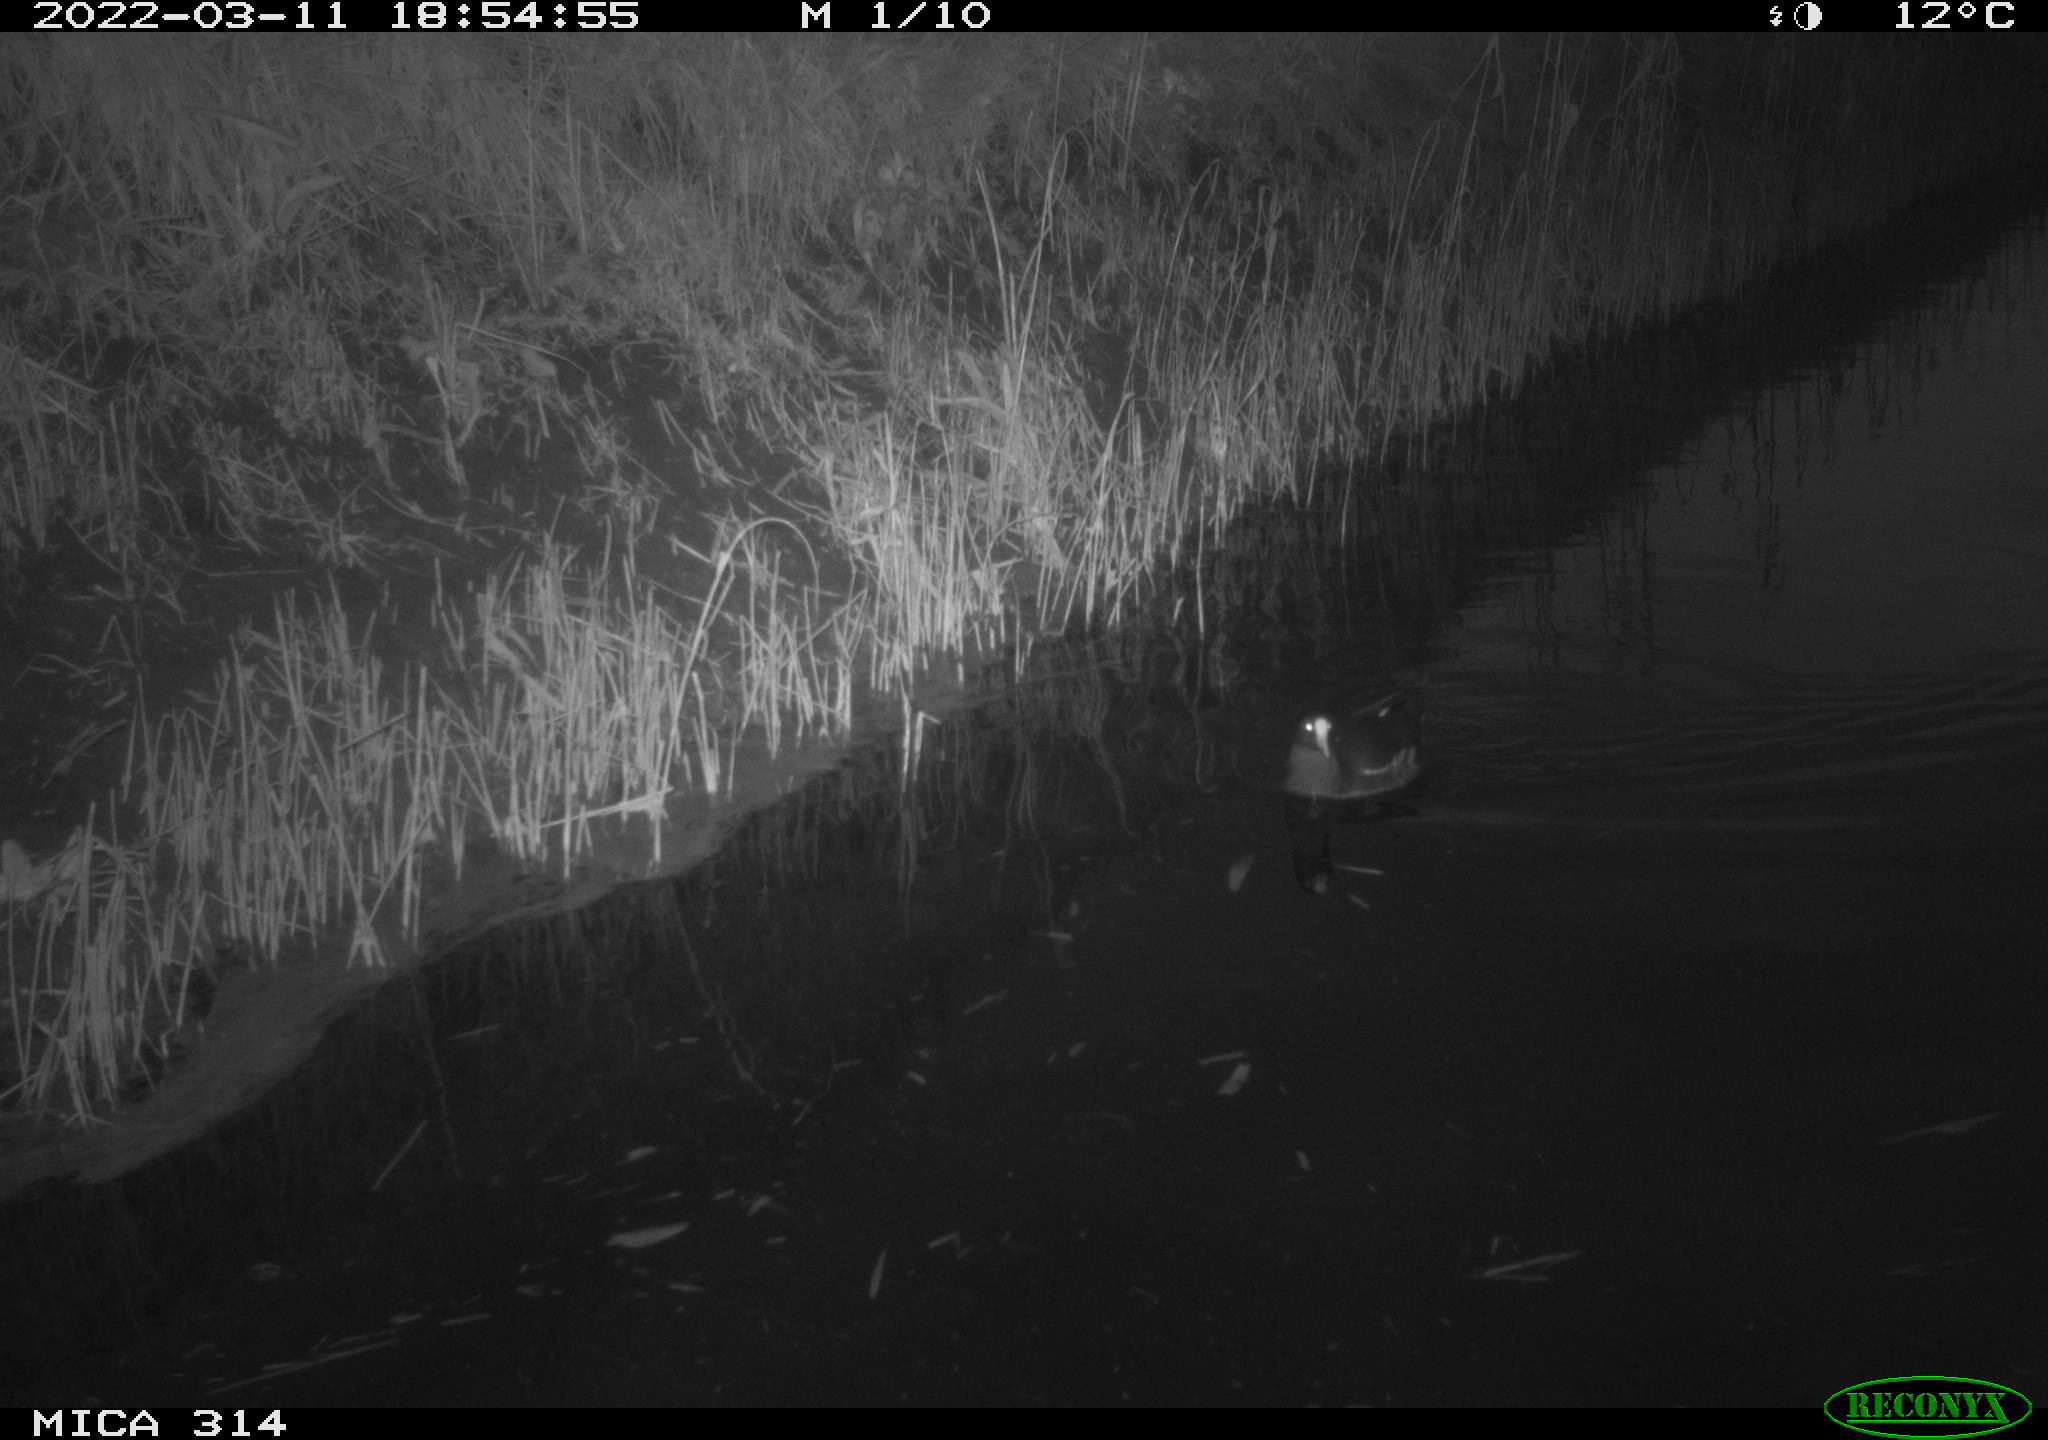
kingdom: Animalia
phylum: Chordata
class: Aves
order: Gruiformes
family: Rallidae
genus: Gallinula
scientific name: Gallinula chloropus
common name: Common moorhen
